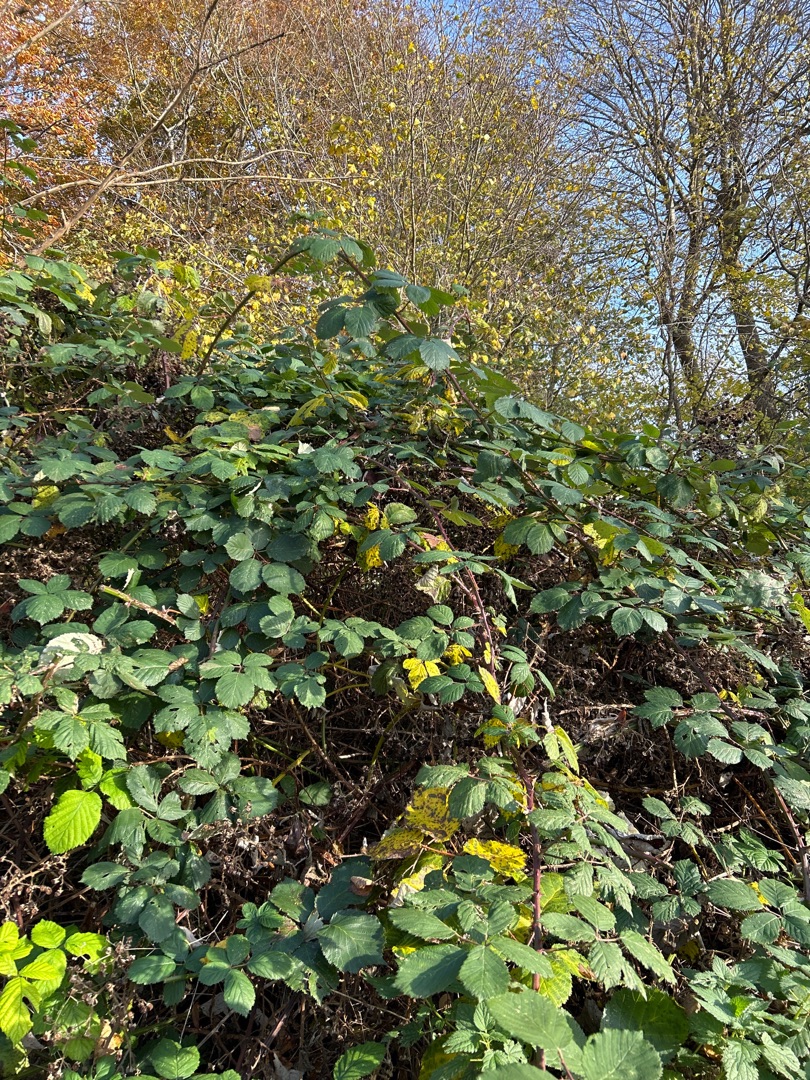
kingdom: Plantae
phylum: Tracheophyta
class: Magnoliopsida
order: Rosales
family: Rosaceae
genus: Rubus
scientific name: Rubus armeniacus
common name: Armensk brombær
